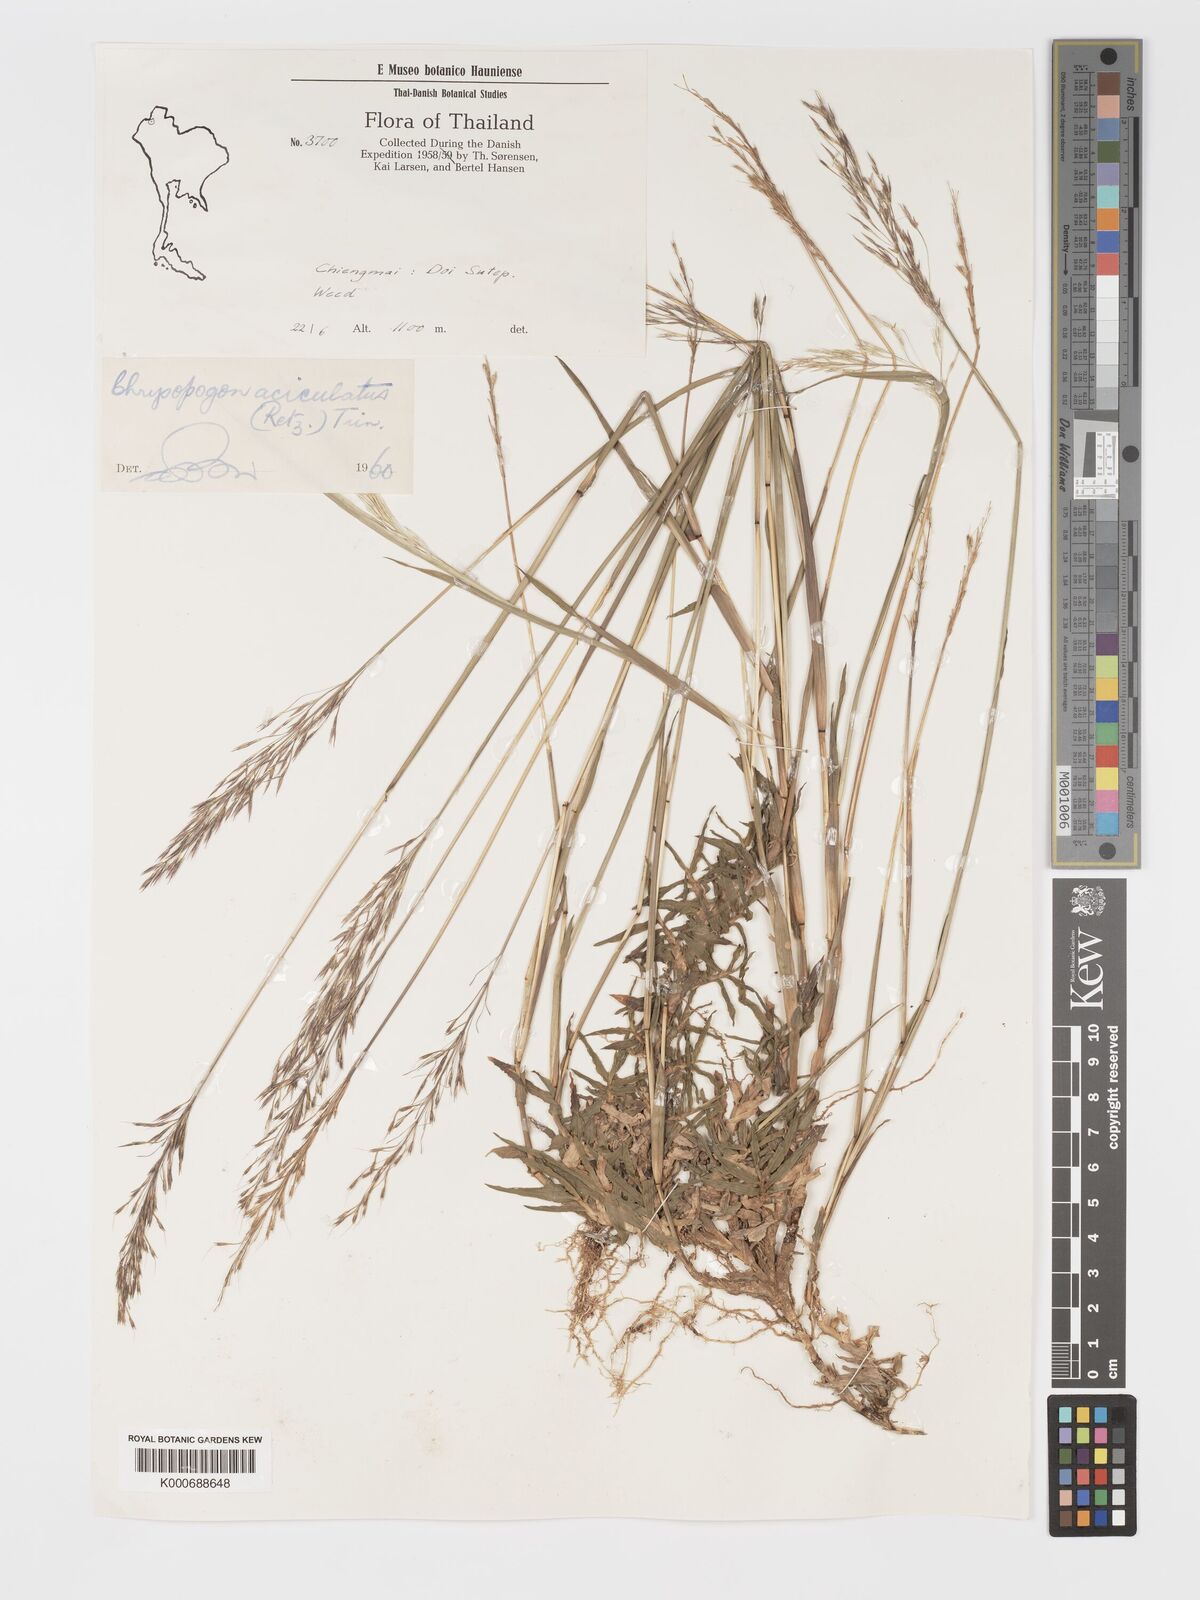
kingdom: Plantae
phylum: Tracheophyta
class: Liliopsida
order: Poales
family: Poaceae
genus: Chrysopogon
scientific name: Chrysopogon aciculatus
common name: Pilipiliula
